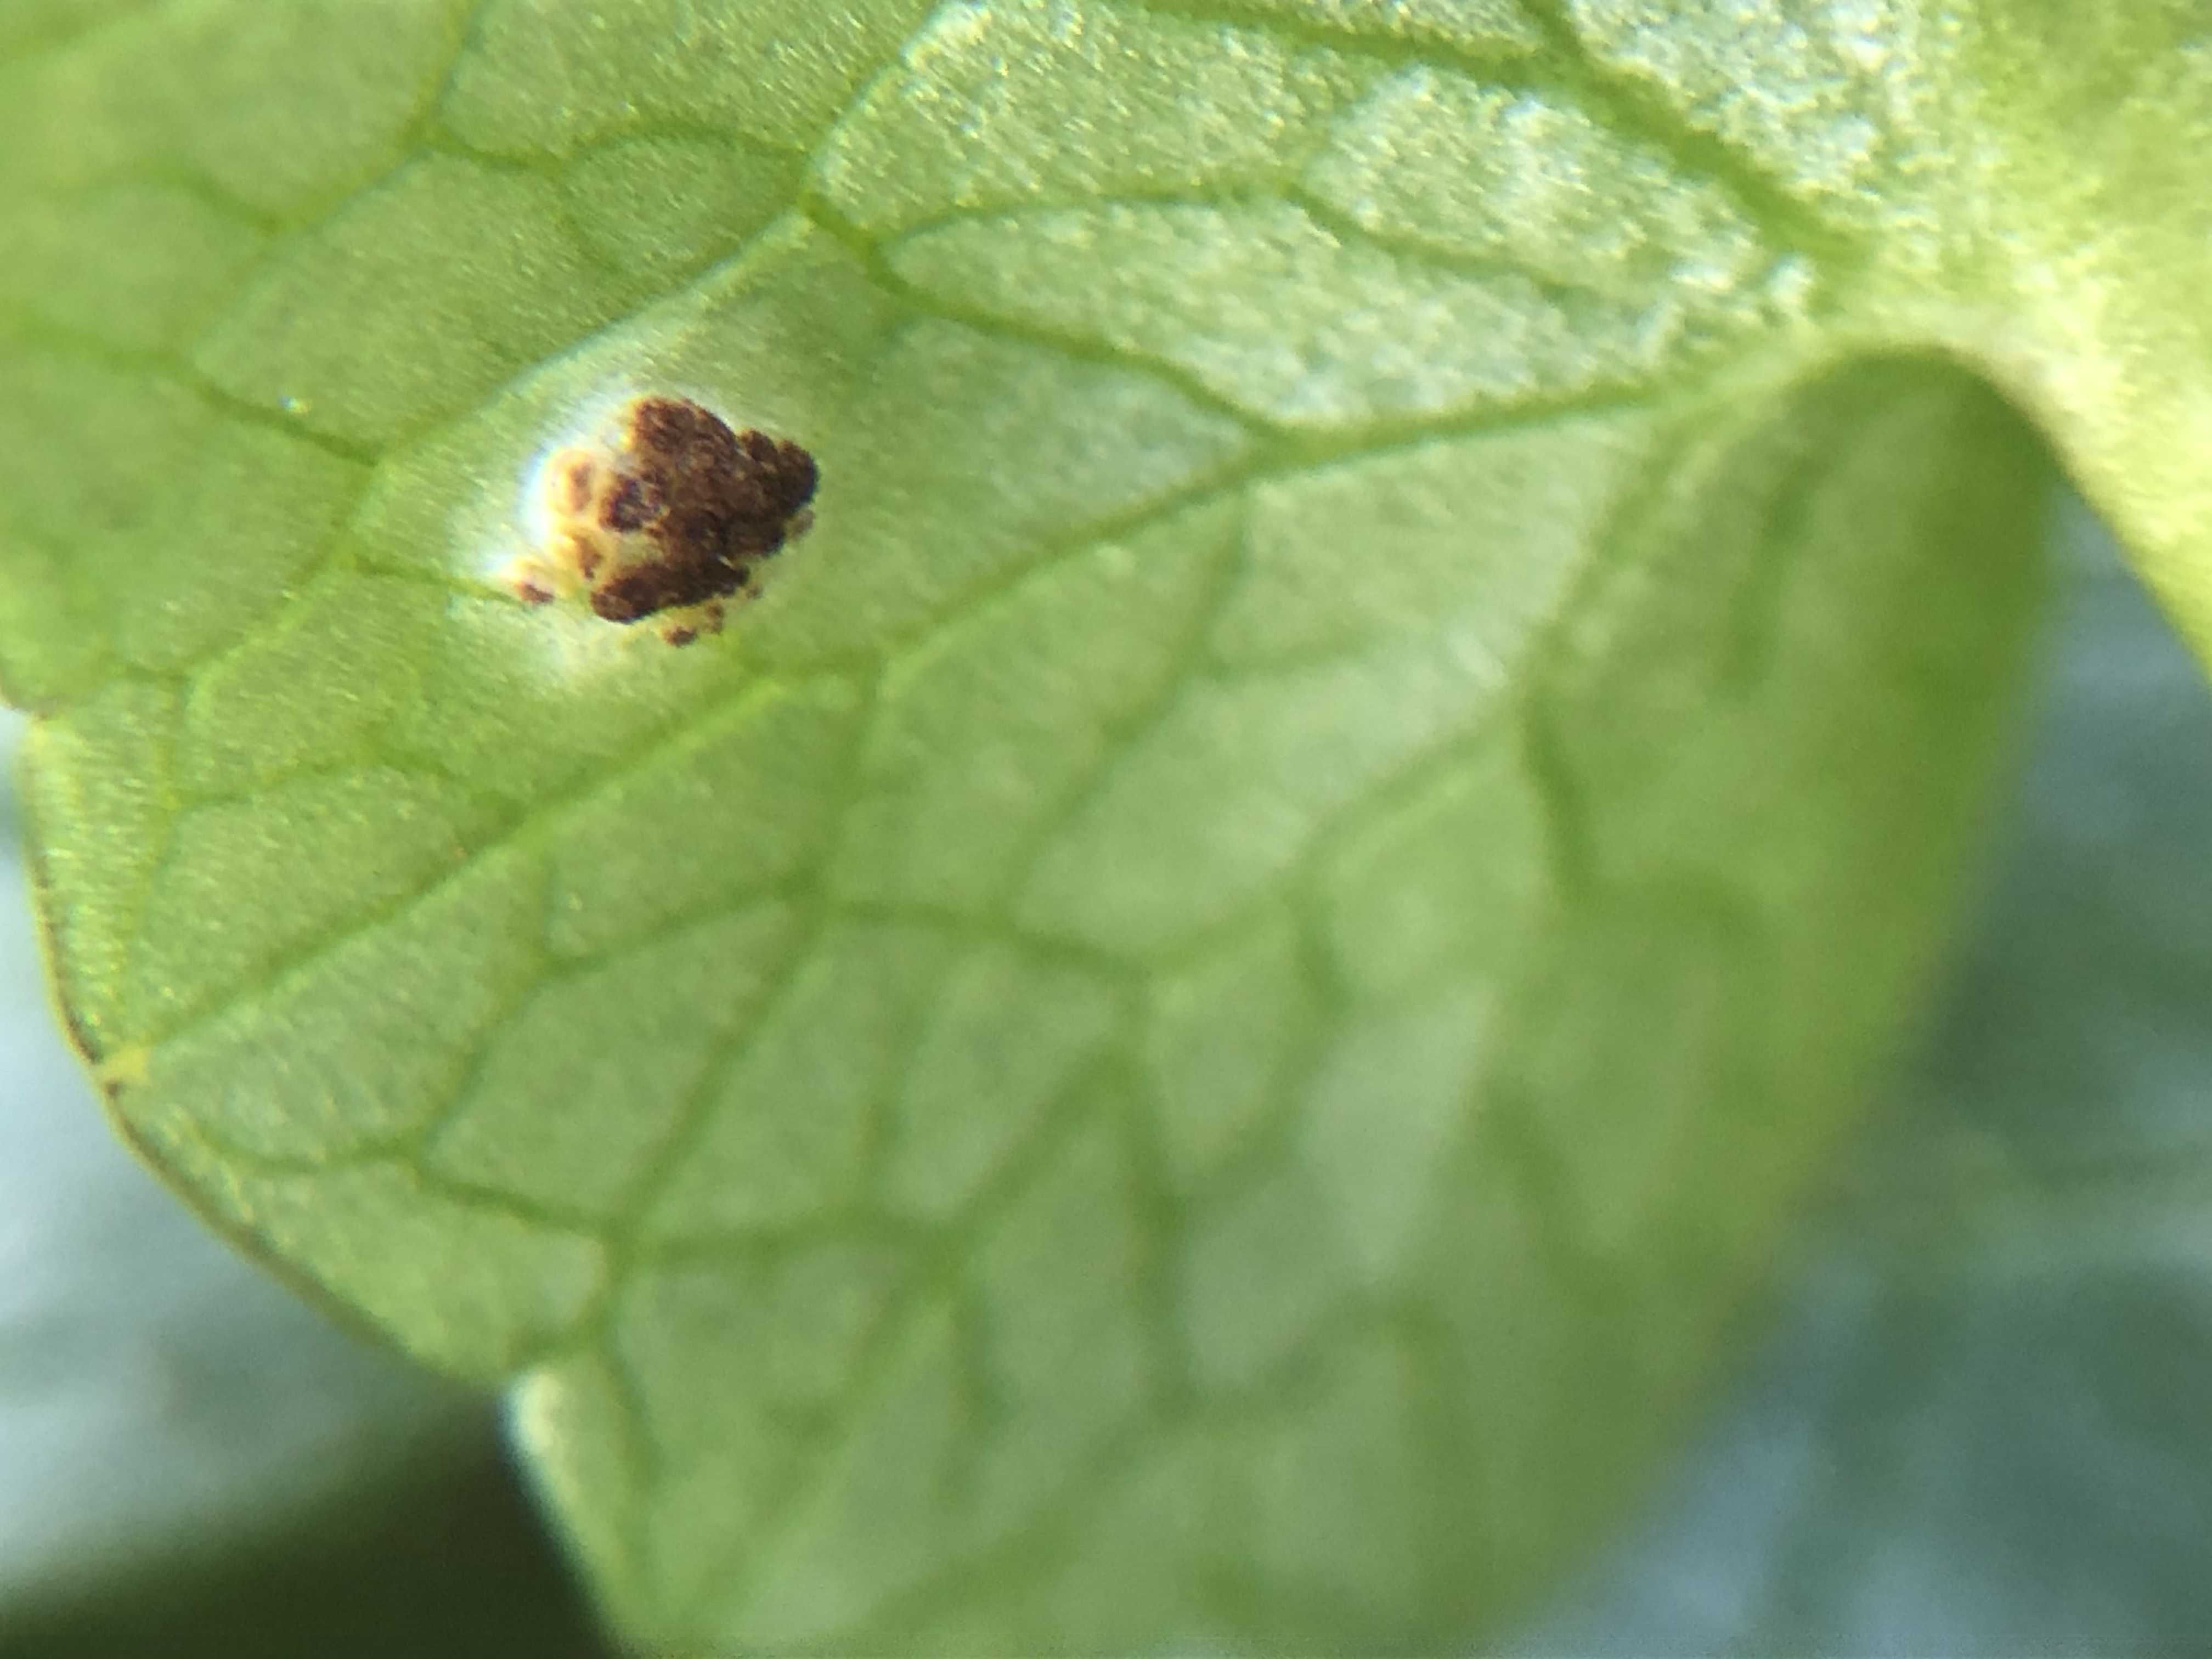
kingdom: Fungi
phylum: Basidiomycota
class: Pucciniomycetes
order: Pucciniales
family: Pucciniaceae
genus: Uromyces
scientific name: Uromyces ficariae
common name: vorterod-encellerust
